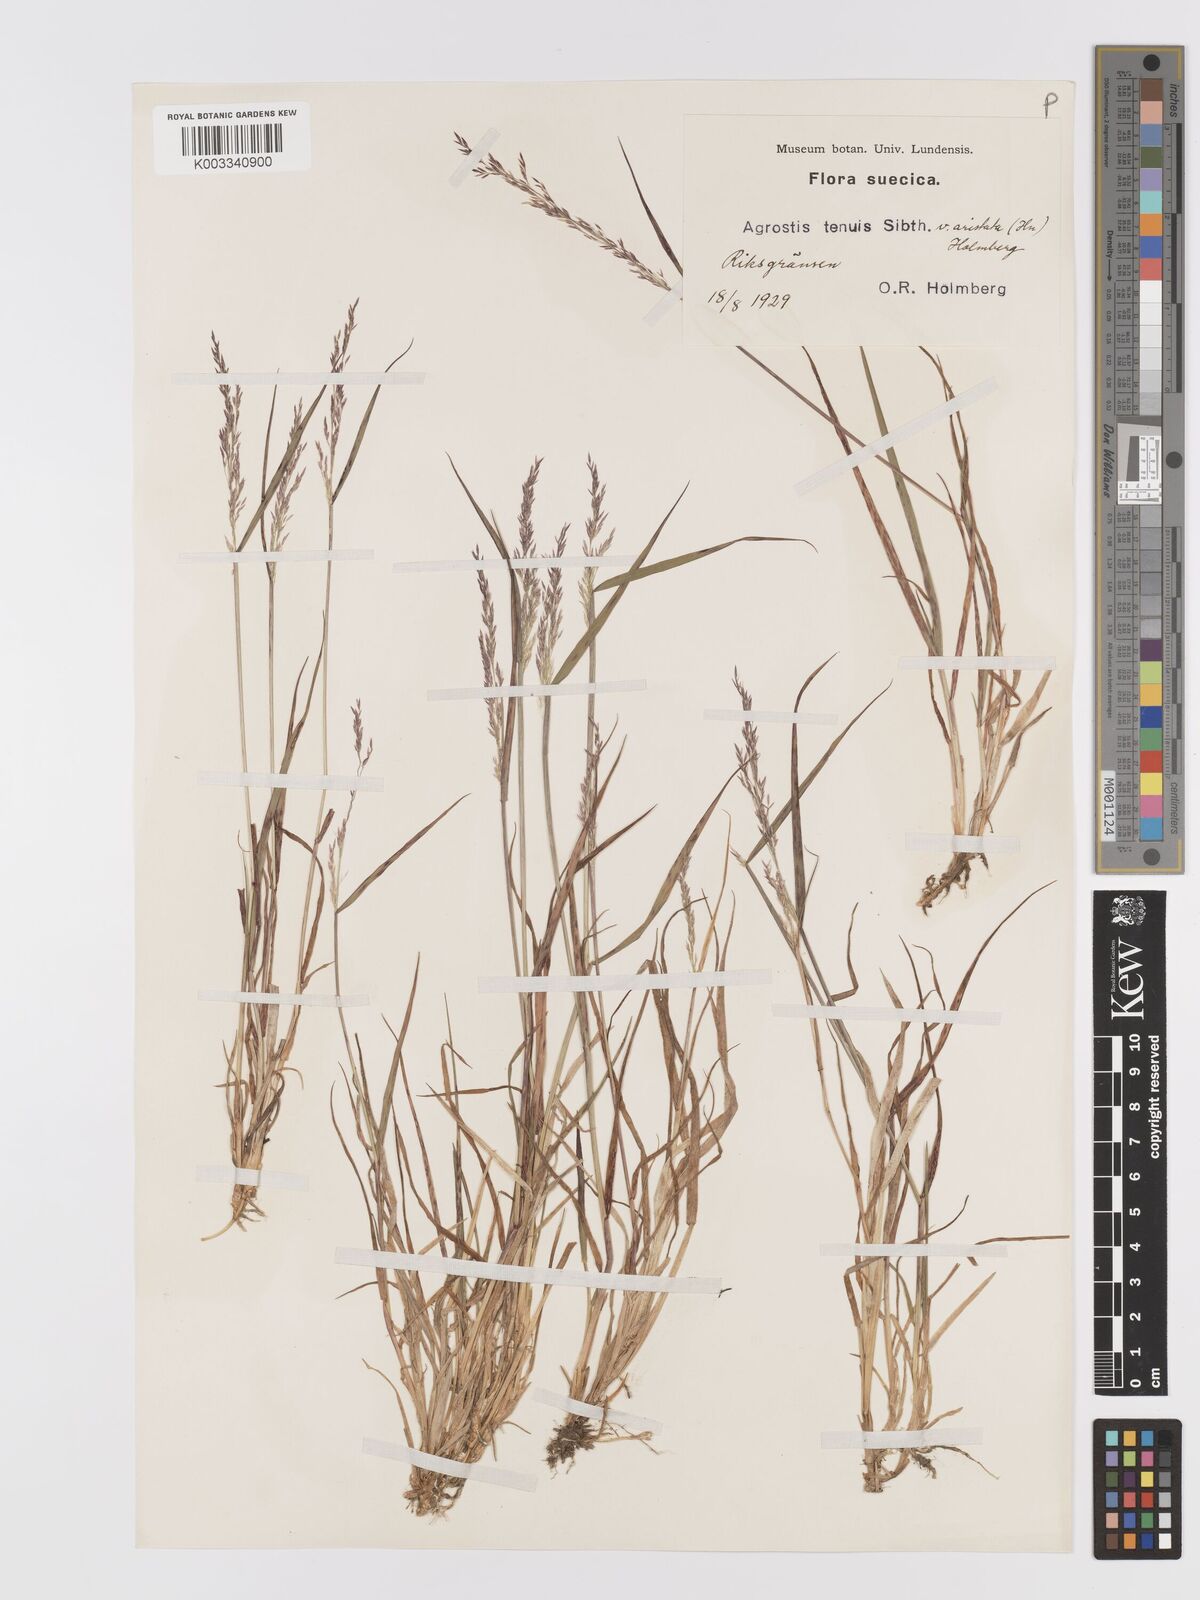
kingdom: Plantae
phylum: Tracheophyta
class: Liliopsida
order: Poales
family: Poaceae
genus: Agrostis
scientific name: Agrostis capillaris
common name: Colonial bentgrass
